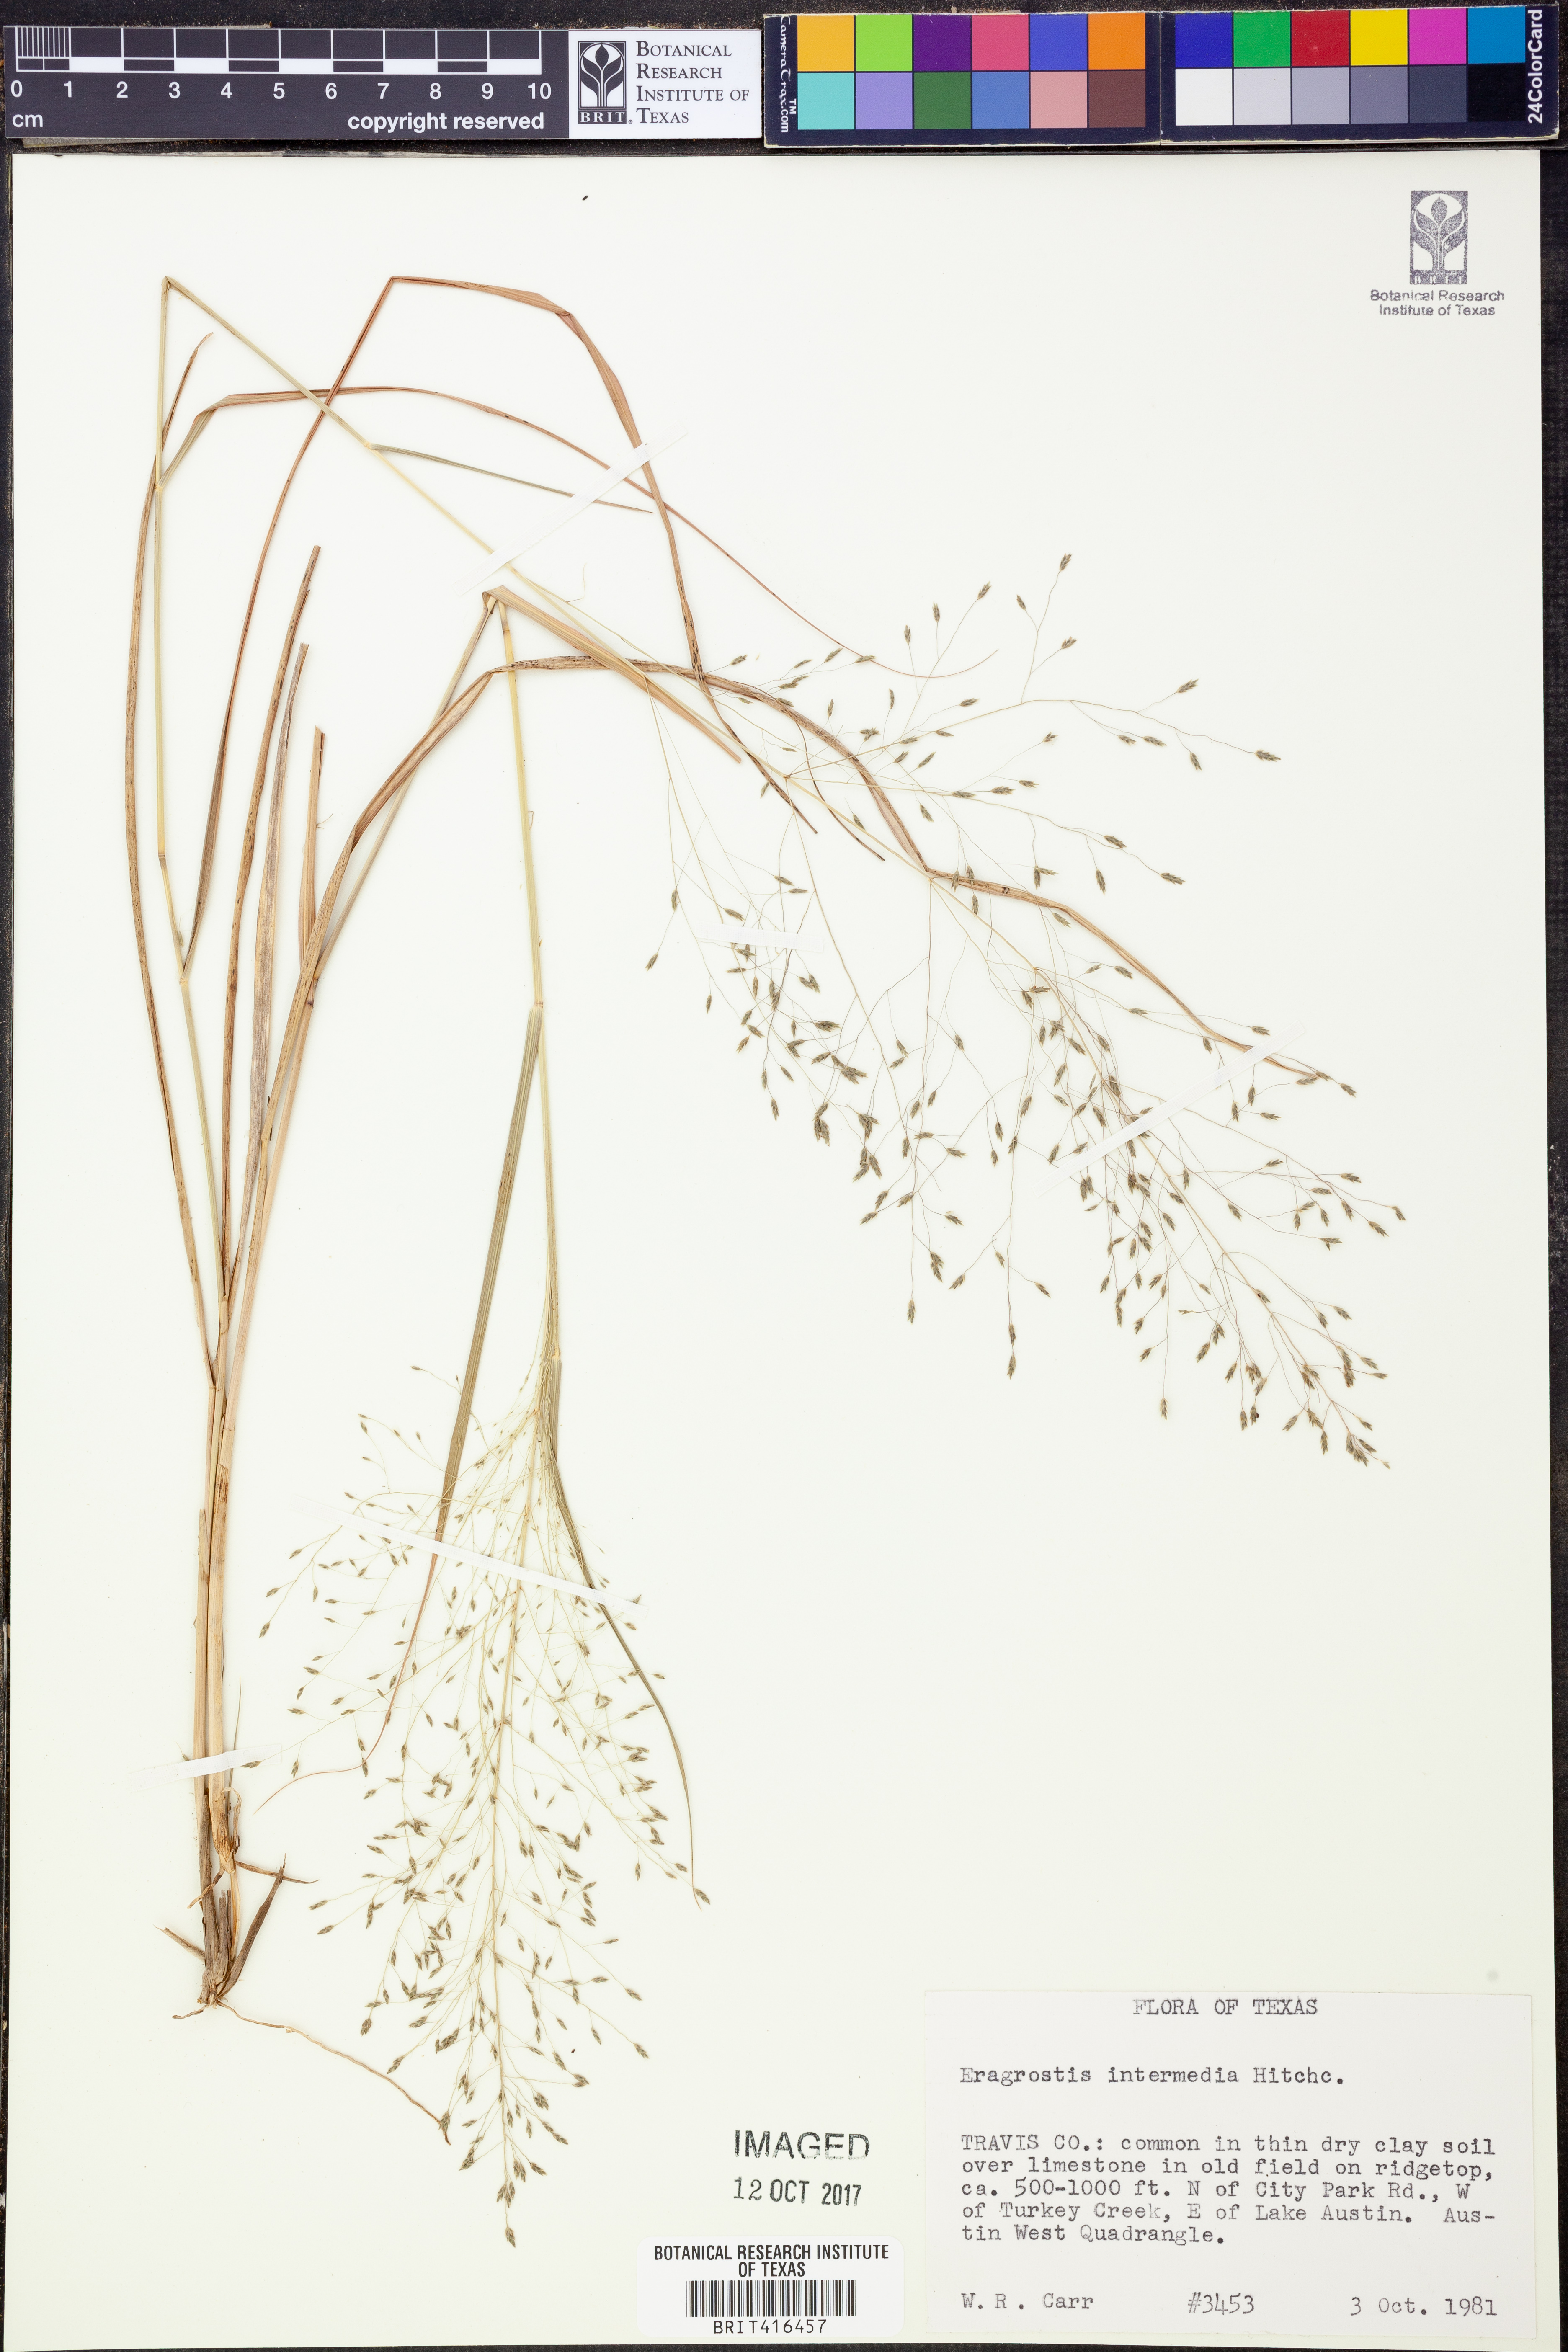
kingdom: Plantae
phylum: Tracheophyta
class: Liliopsida
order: Poales
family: Poaceae
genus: Eragrostis
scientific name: Eragrostis intermedia
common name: Plains love grass
